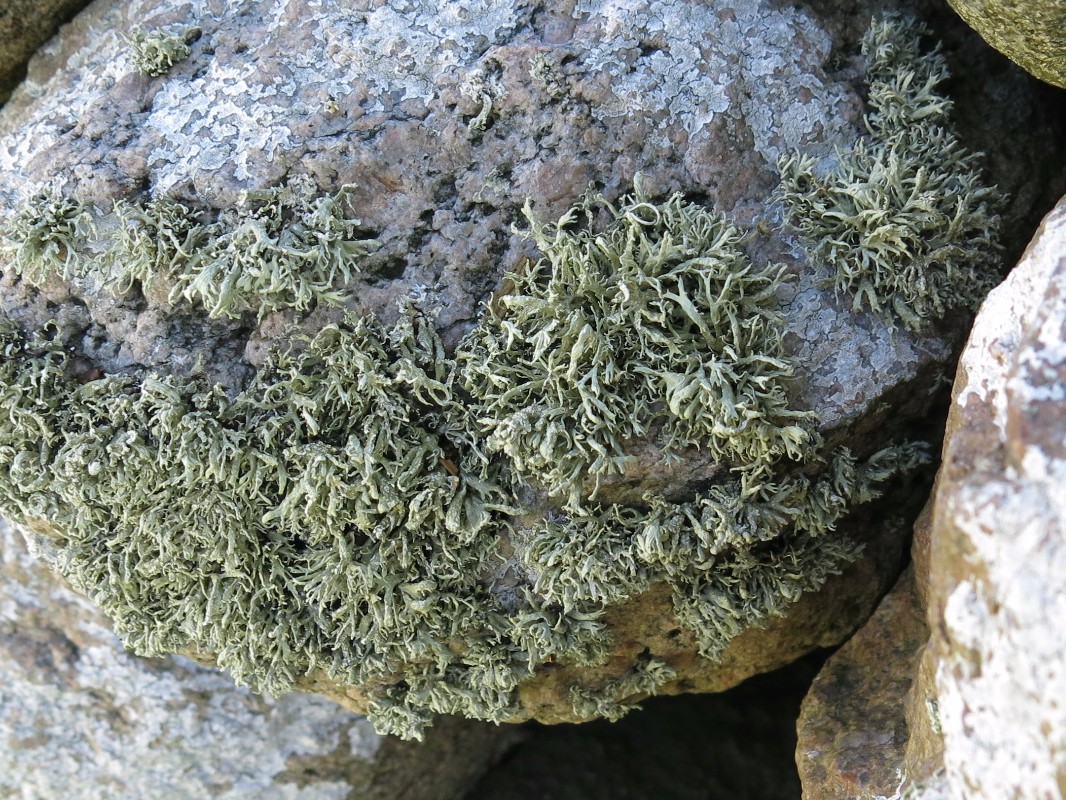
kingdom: Fungi
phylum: Ascomycota
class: Lecanoromycetes
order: Lecanorales
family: Ramalinaceae
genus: Ramalina
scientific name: Ramalina siliquosa
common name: klippe-grenlav
